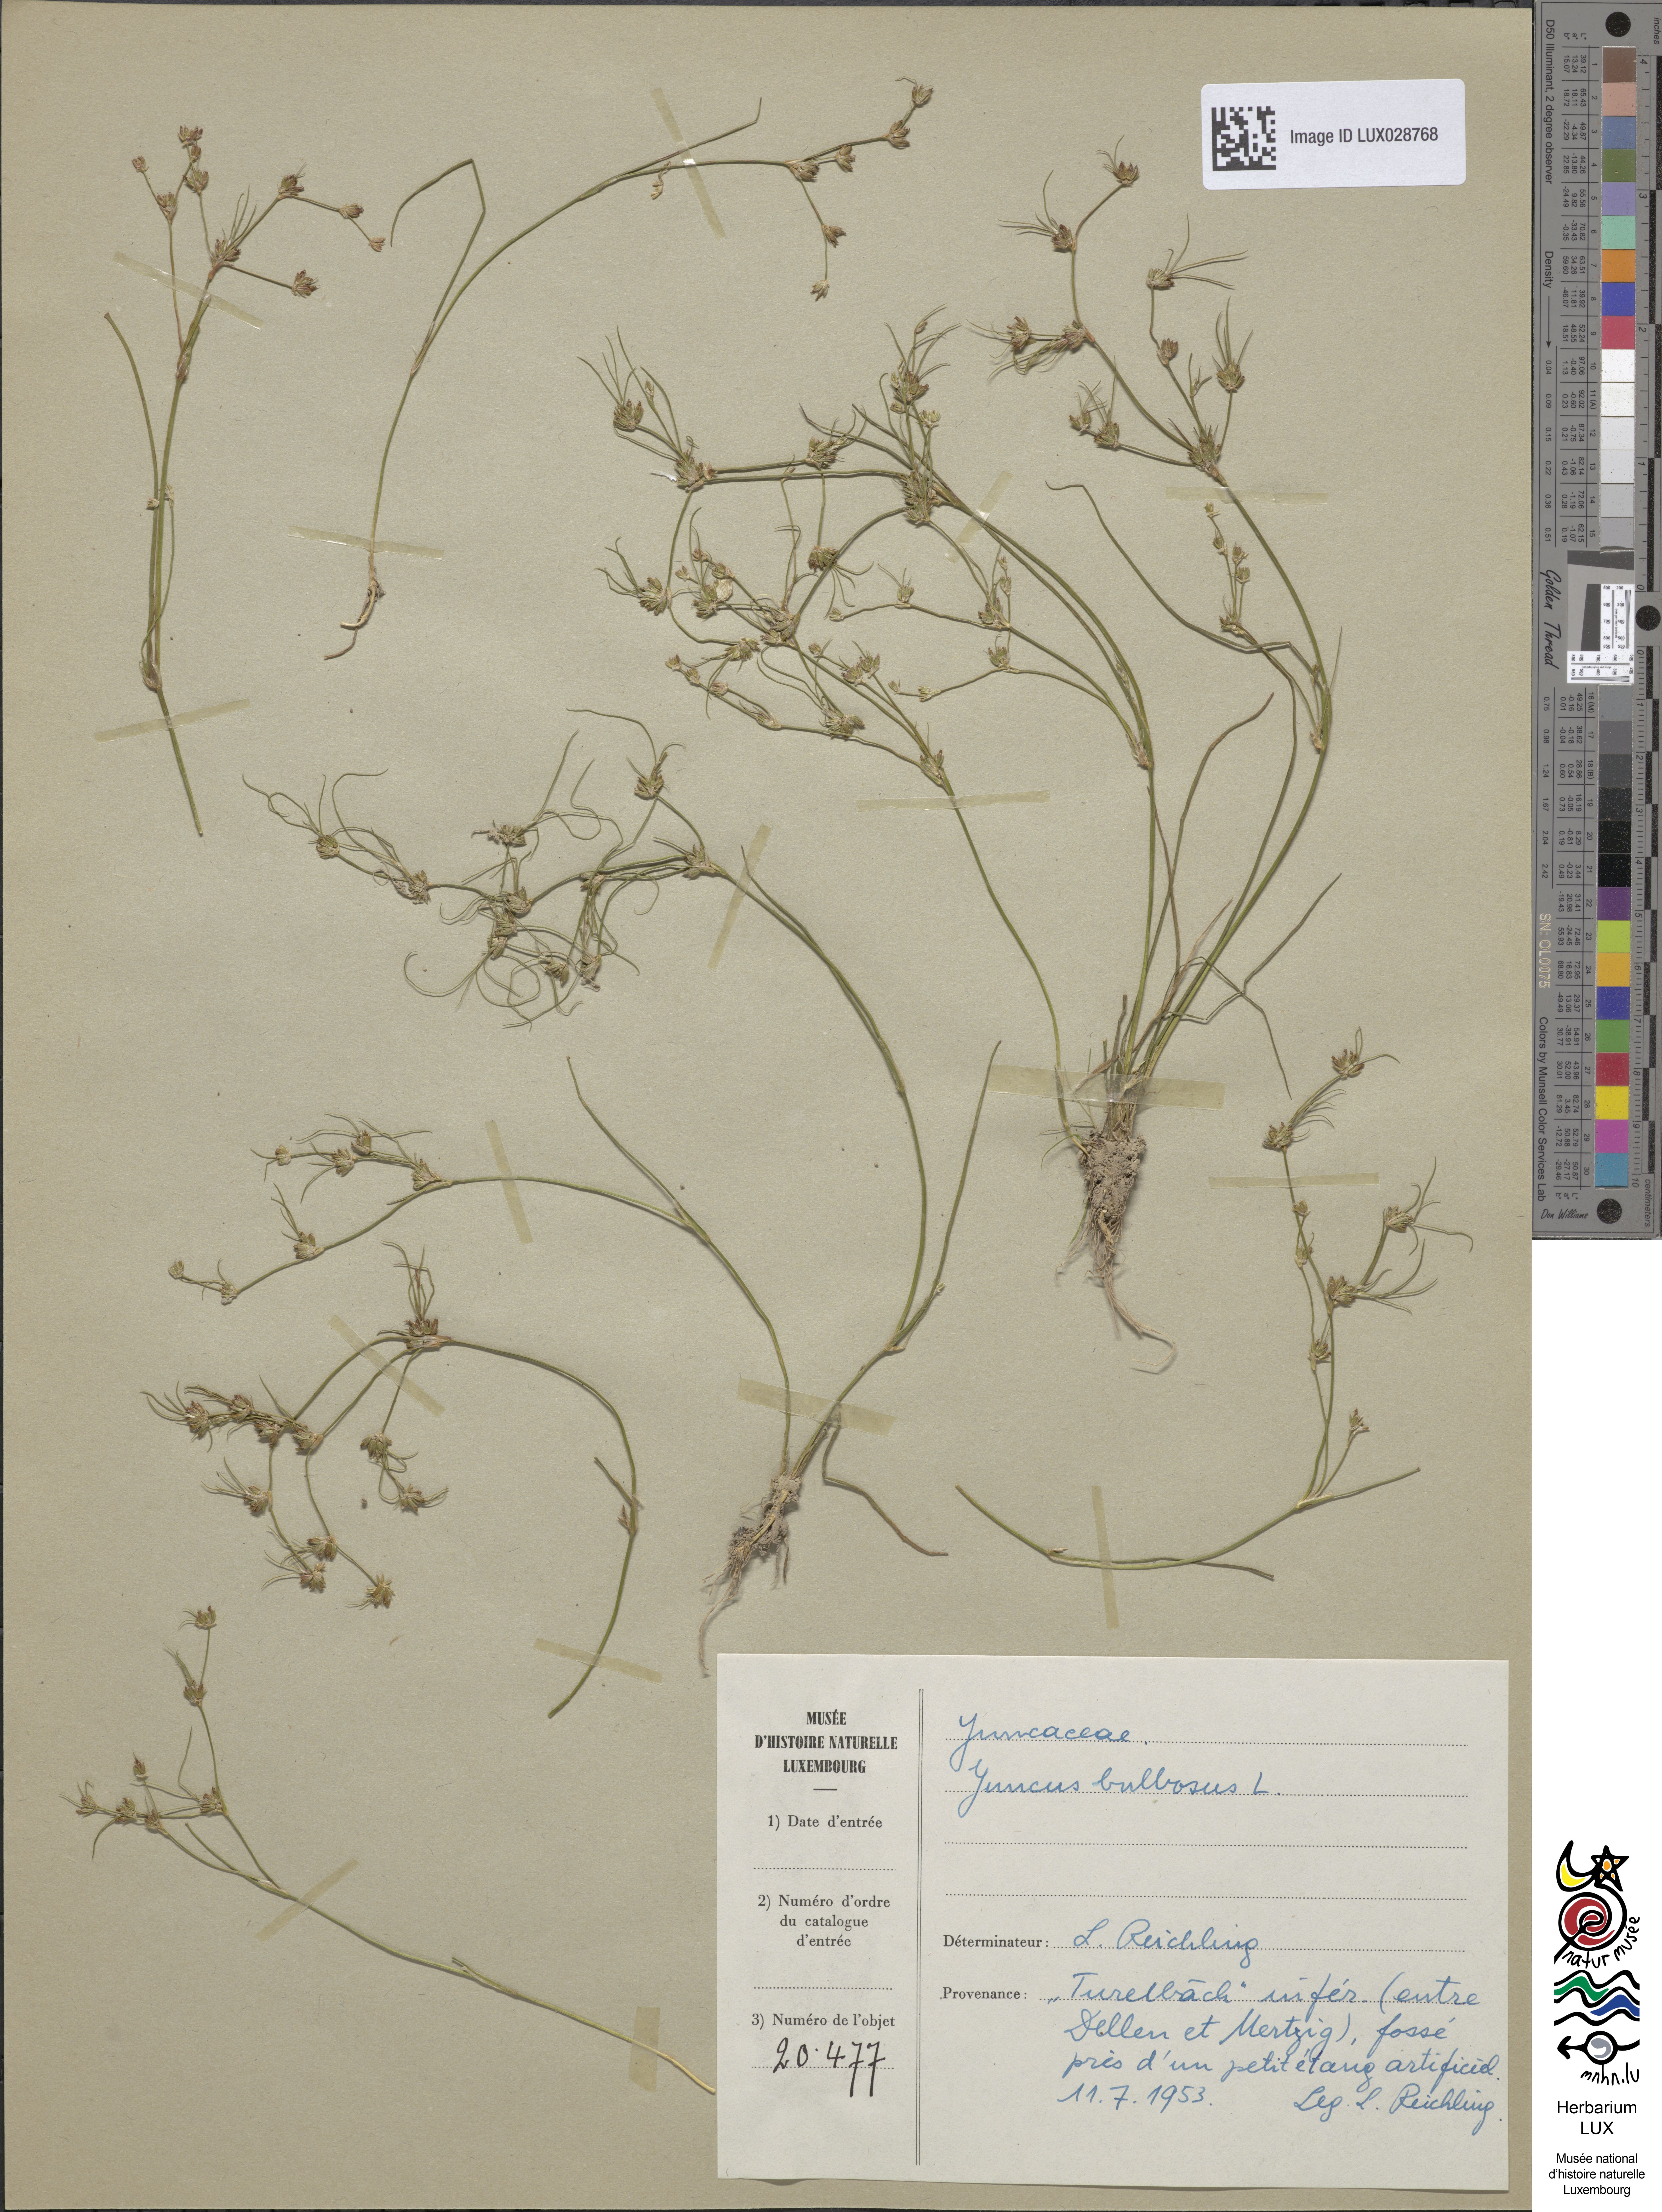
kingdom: Plantae
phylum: Tracheophyta
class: Liliopsida
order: Poales
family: Juncaceae
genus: Juncus
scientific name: Juncus bulbosus
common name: Bulbous rush
